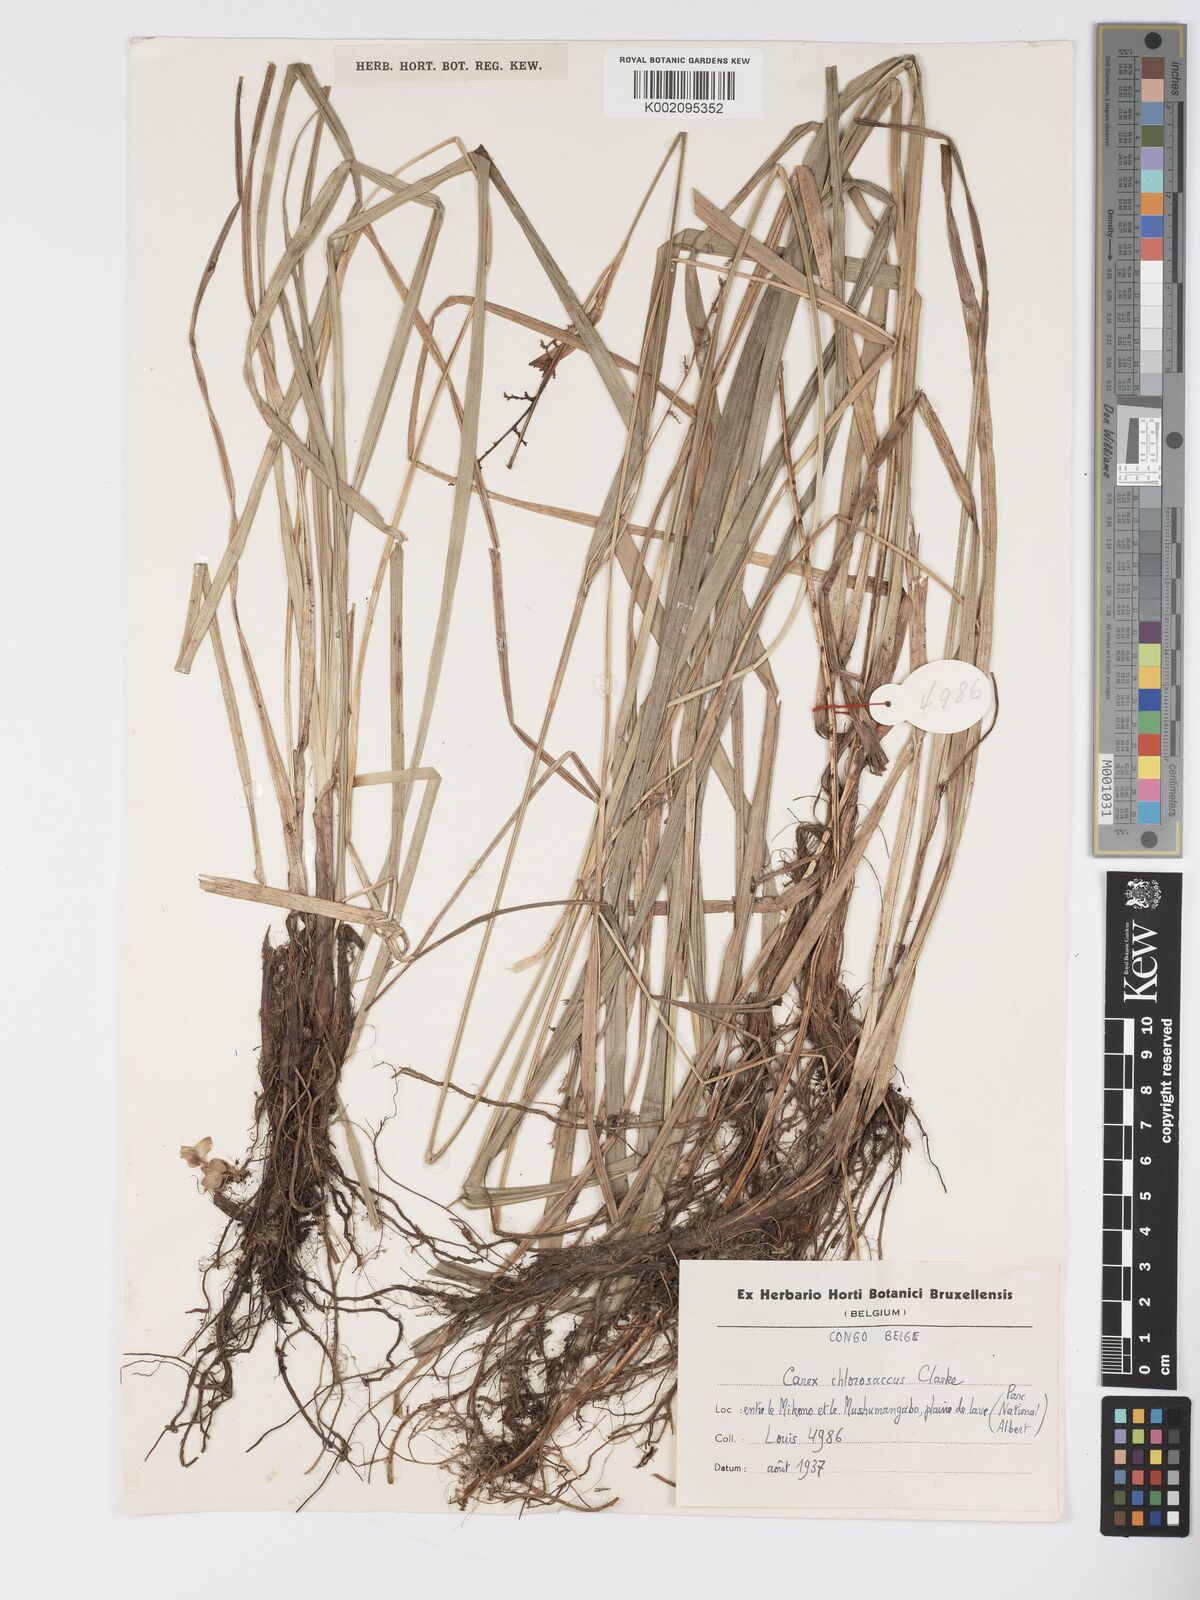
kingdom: Plantae
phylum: Tracheophyta
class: Liliopsida
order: Poales
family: Cyperaceae
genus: Carex
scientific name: Carex chlorosaccus
